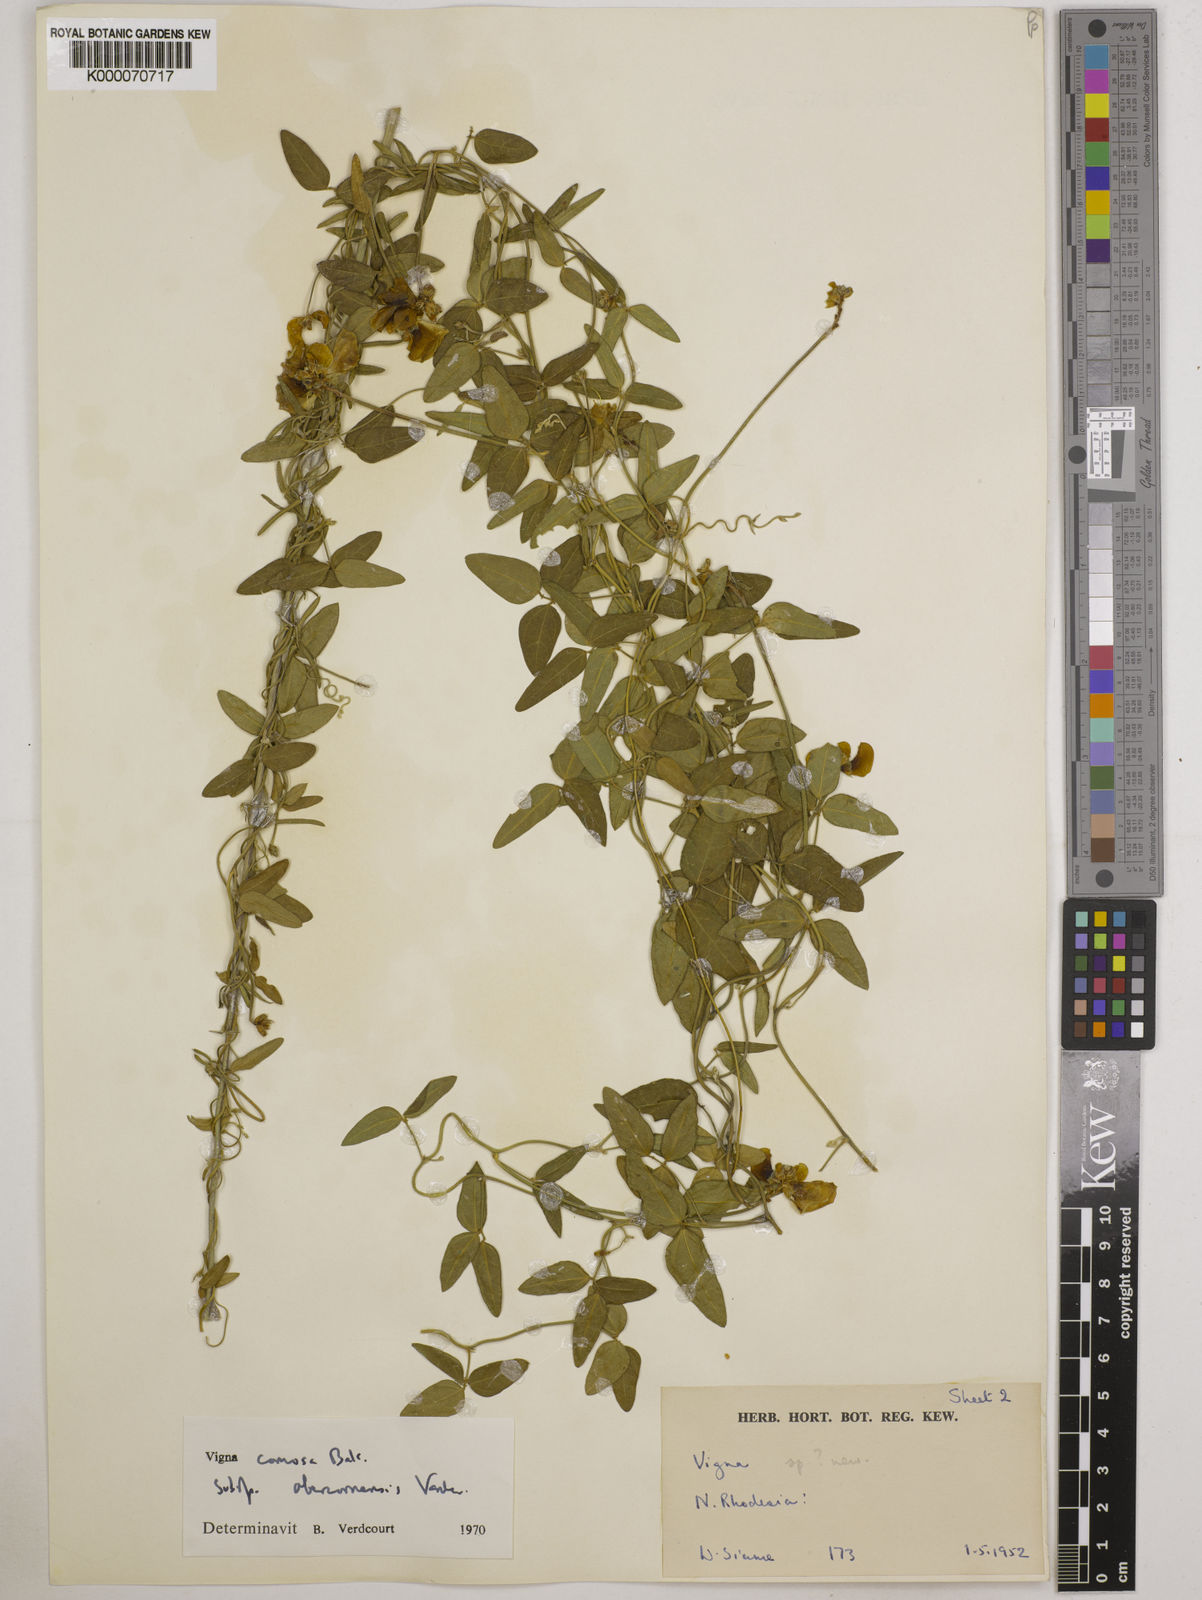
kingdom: Plantae
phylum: Tracheophyta
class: Magnoliopsida
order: Fabales
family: Fabaceae
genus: Vigna
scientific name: Vigna comosa
